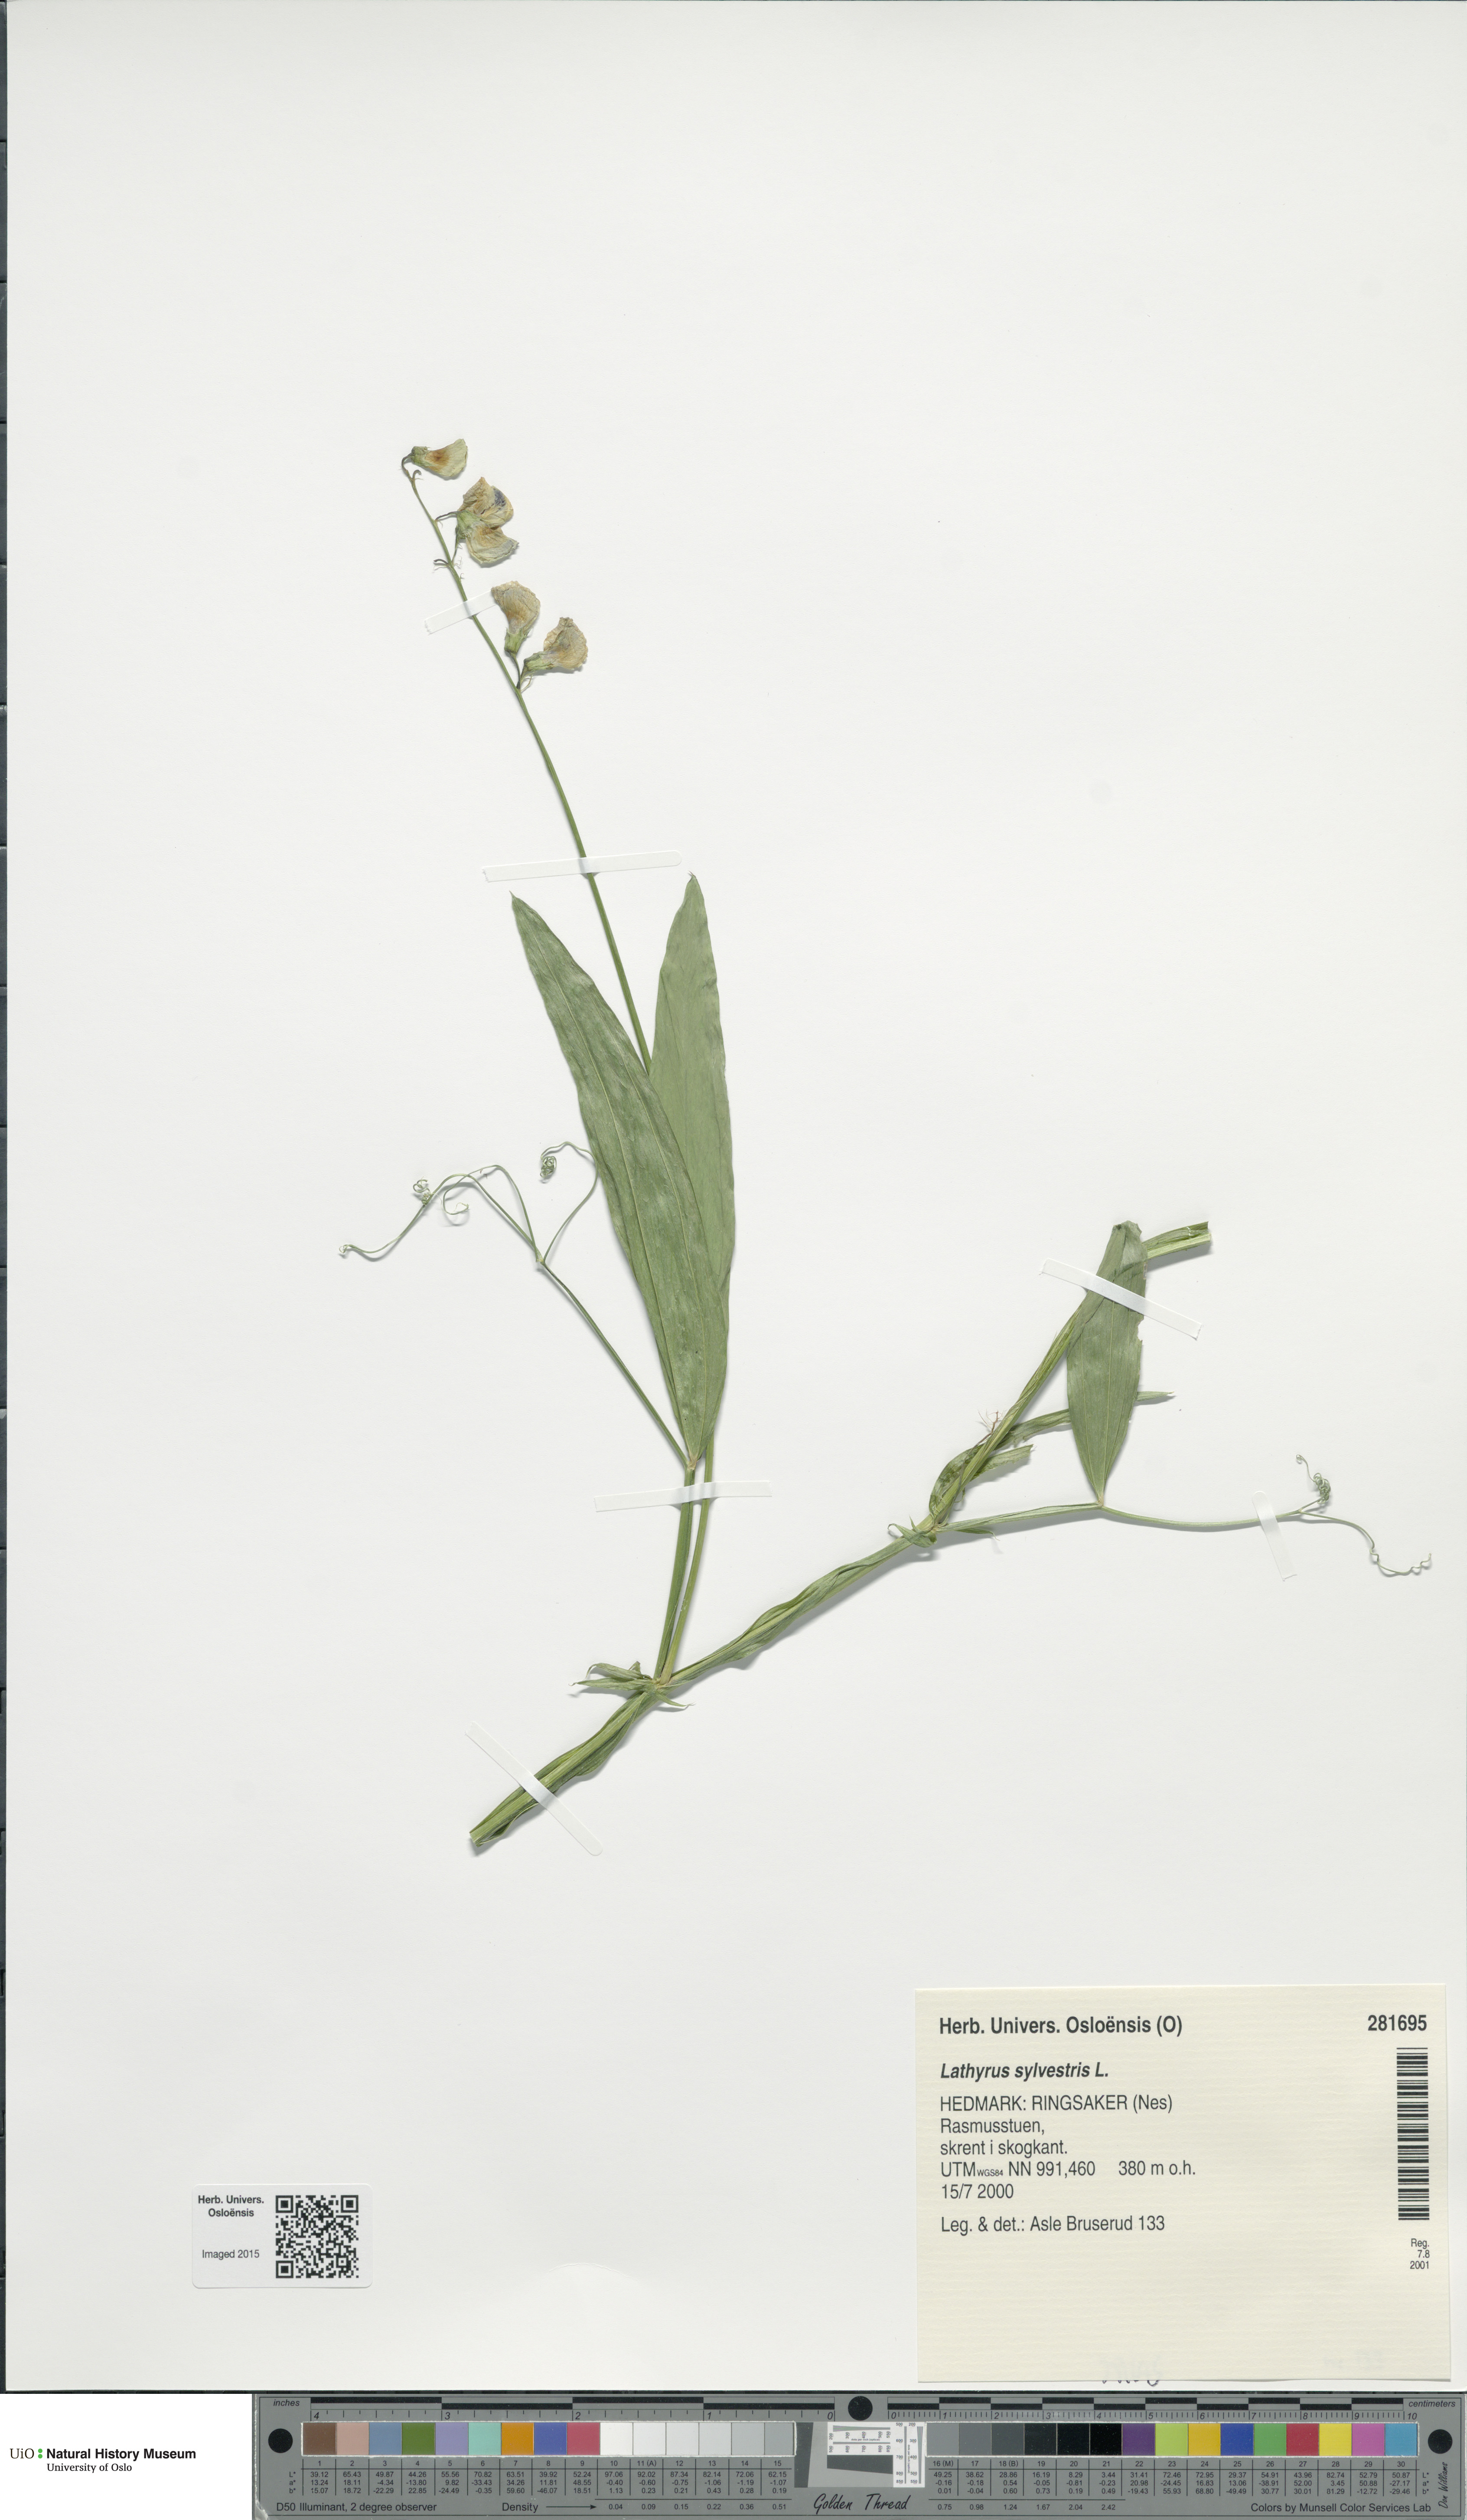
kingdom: Plantae
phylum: Tracheophyta
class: Magnoliopsida
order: Fabales
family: Fabaceae
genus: Lathyrus
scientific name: Lathyrus sylvestris
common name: Flat pea
